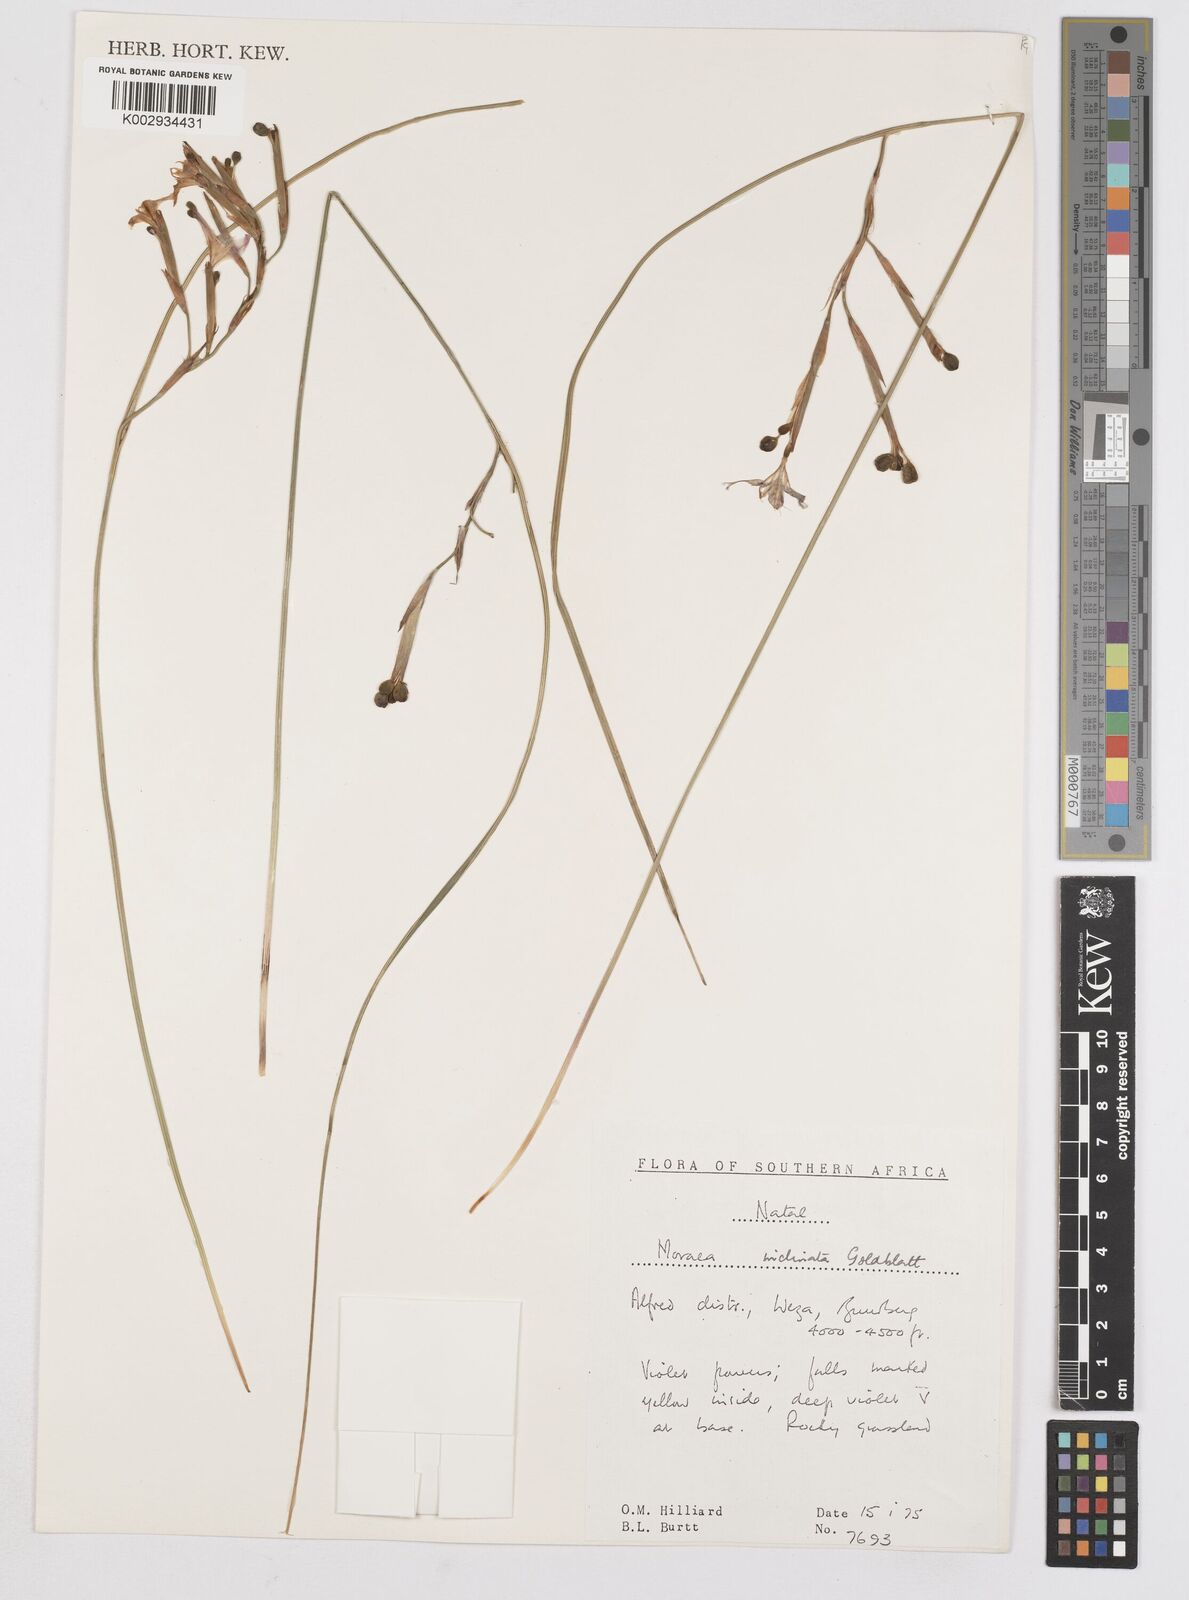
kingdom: Plantae
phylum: Tracheophyta
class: Liliopsida
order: Asparagales
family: Iridaceae
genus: Moraea
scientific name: Moraea inclinata
